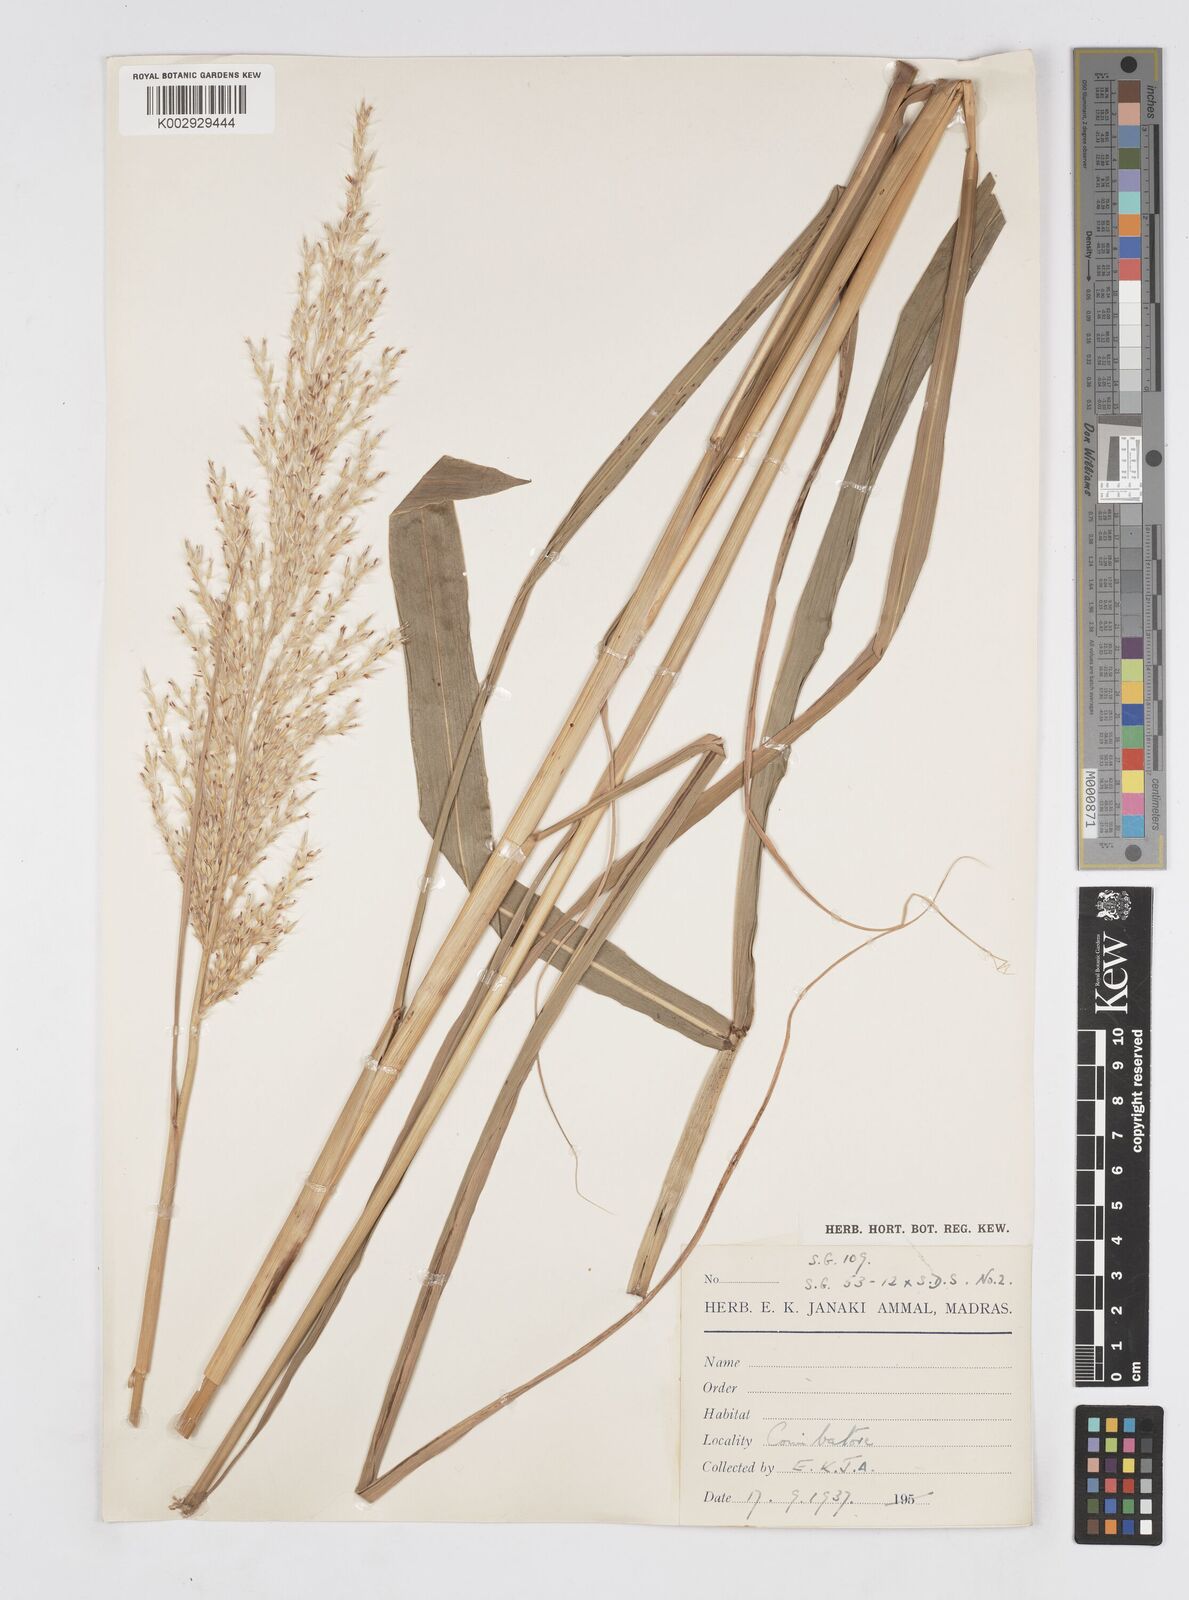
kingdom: Plantae
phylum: Tracheophyta
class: Liliopsida
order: Poales
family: Poaceae
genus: Saccharum
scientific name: Saccharum
